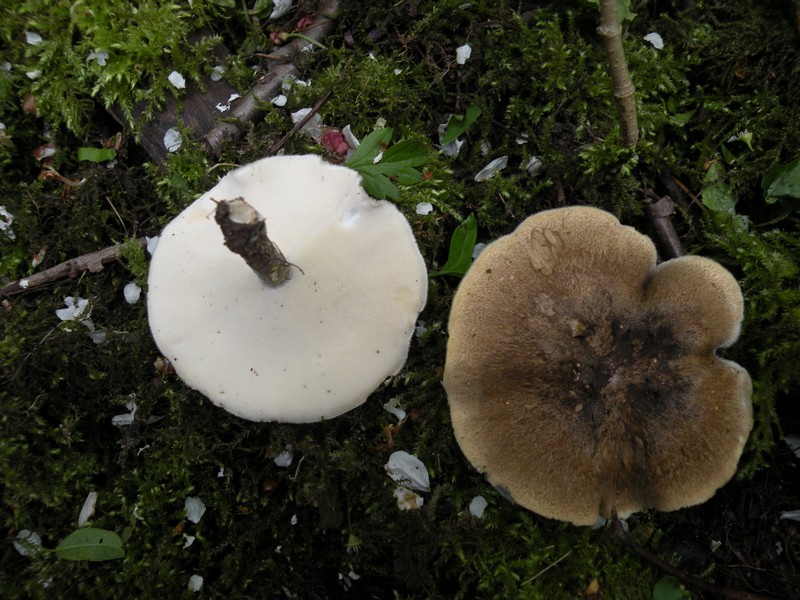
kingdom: Fungi
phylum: Basidiomycota
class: Agaricomycetes
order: Polyporales
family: Polyporaceae
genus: Lentinus
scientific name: Lentinus substrictus
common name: forårs-stilkporesvamp
